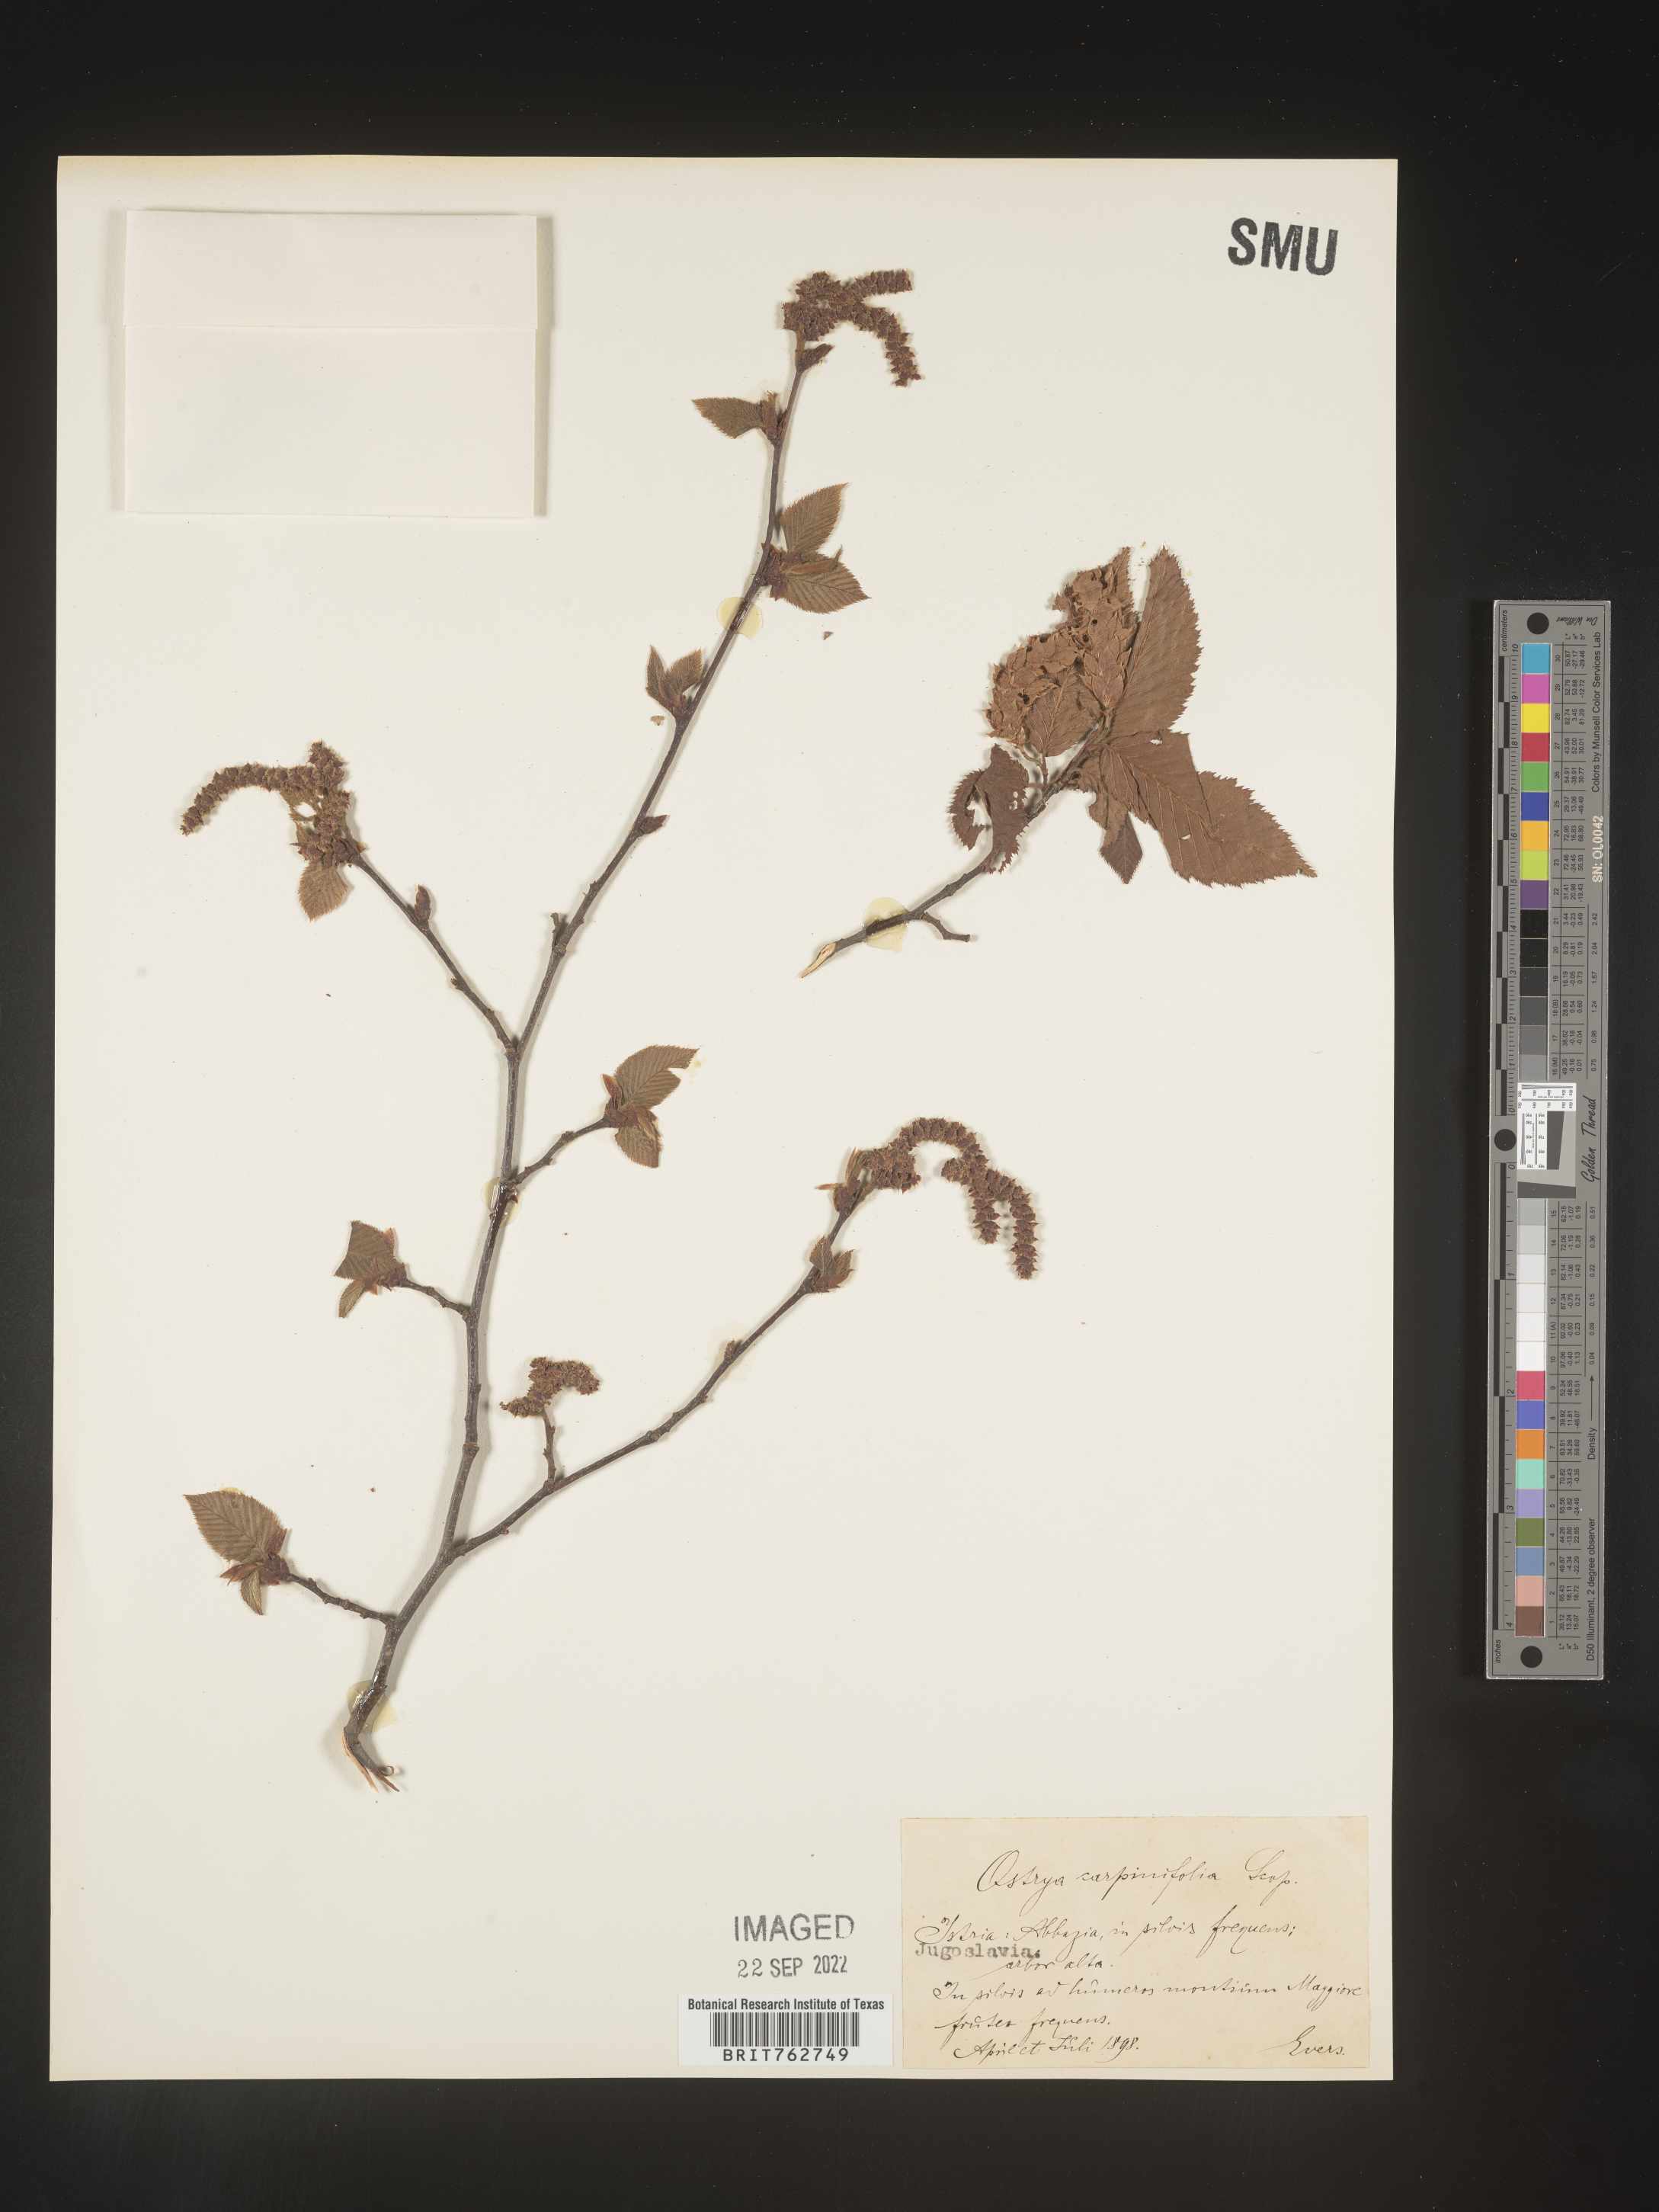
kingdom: Plantae
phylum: Tracheophyta
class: Magnoliopsida
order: Fagales
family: Betulaceae
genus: Ostrya
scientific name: Ostrya
